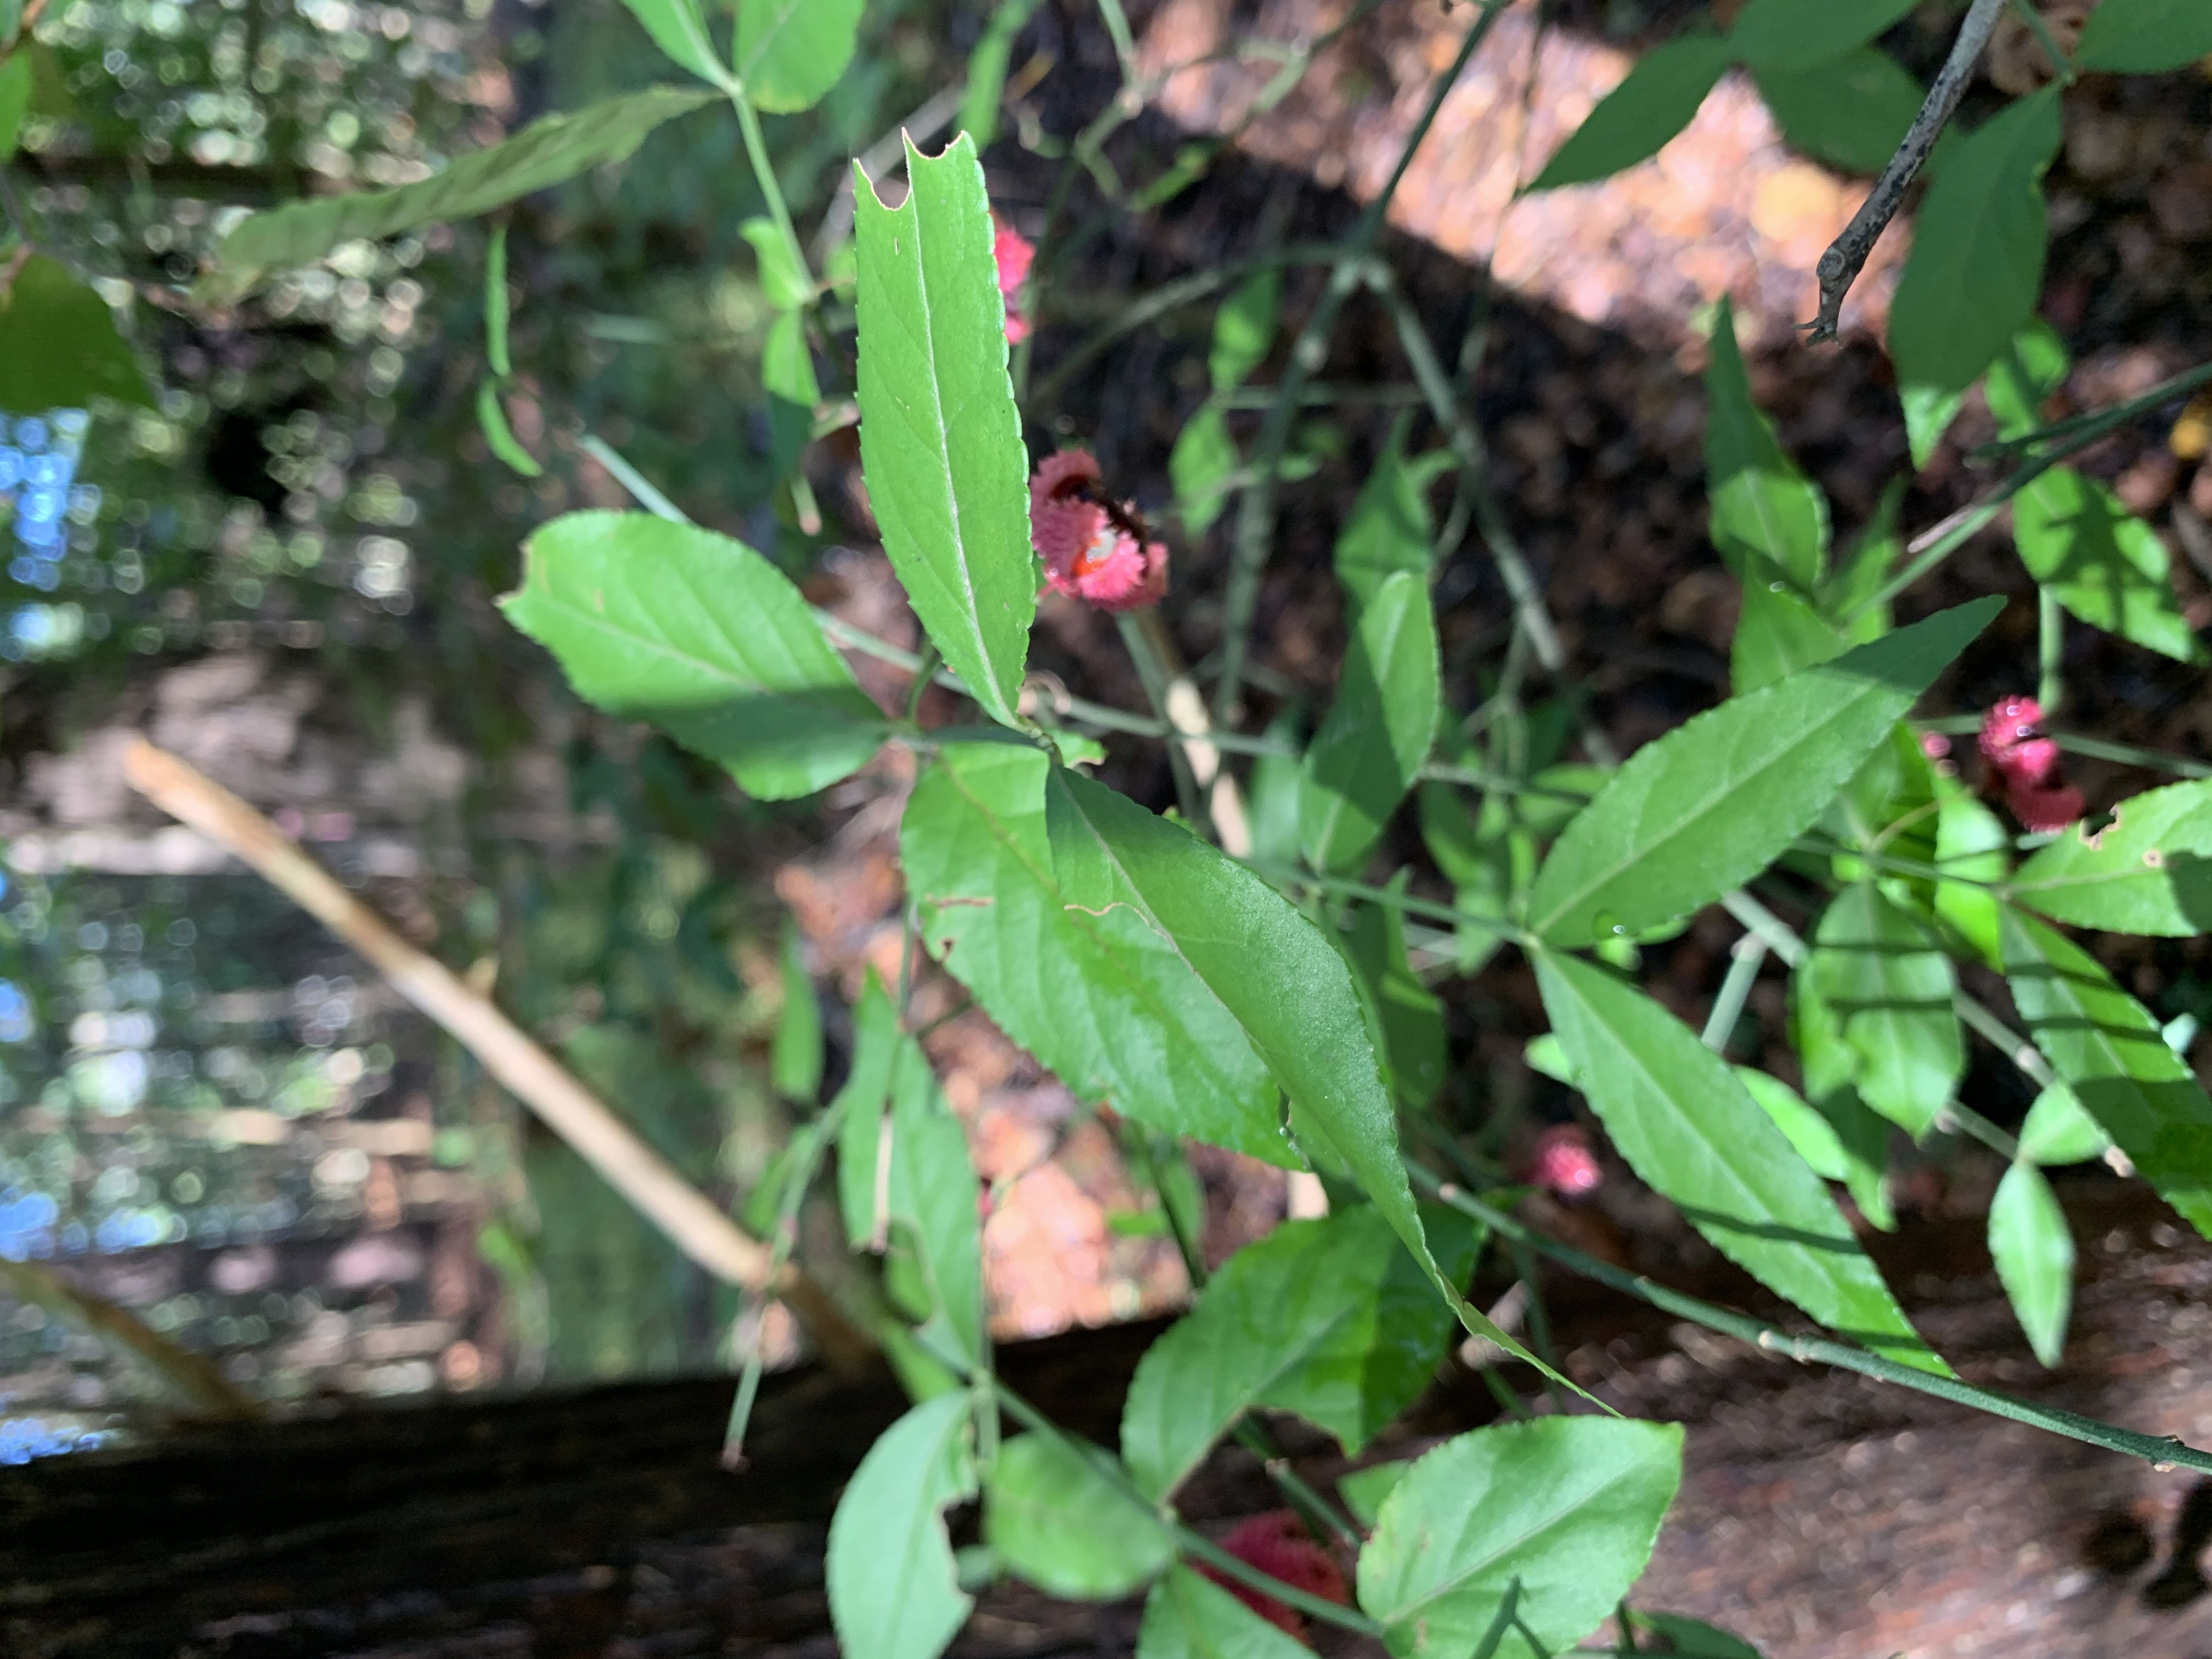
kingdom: Plantae
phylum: Tracheophyta
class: Magnoliopsida
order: Celastrales
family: Celastraceae
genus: Euonymus
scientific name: Euonymus americanus
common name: Strawberry Bush
